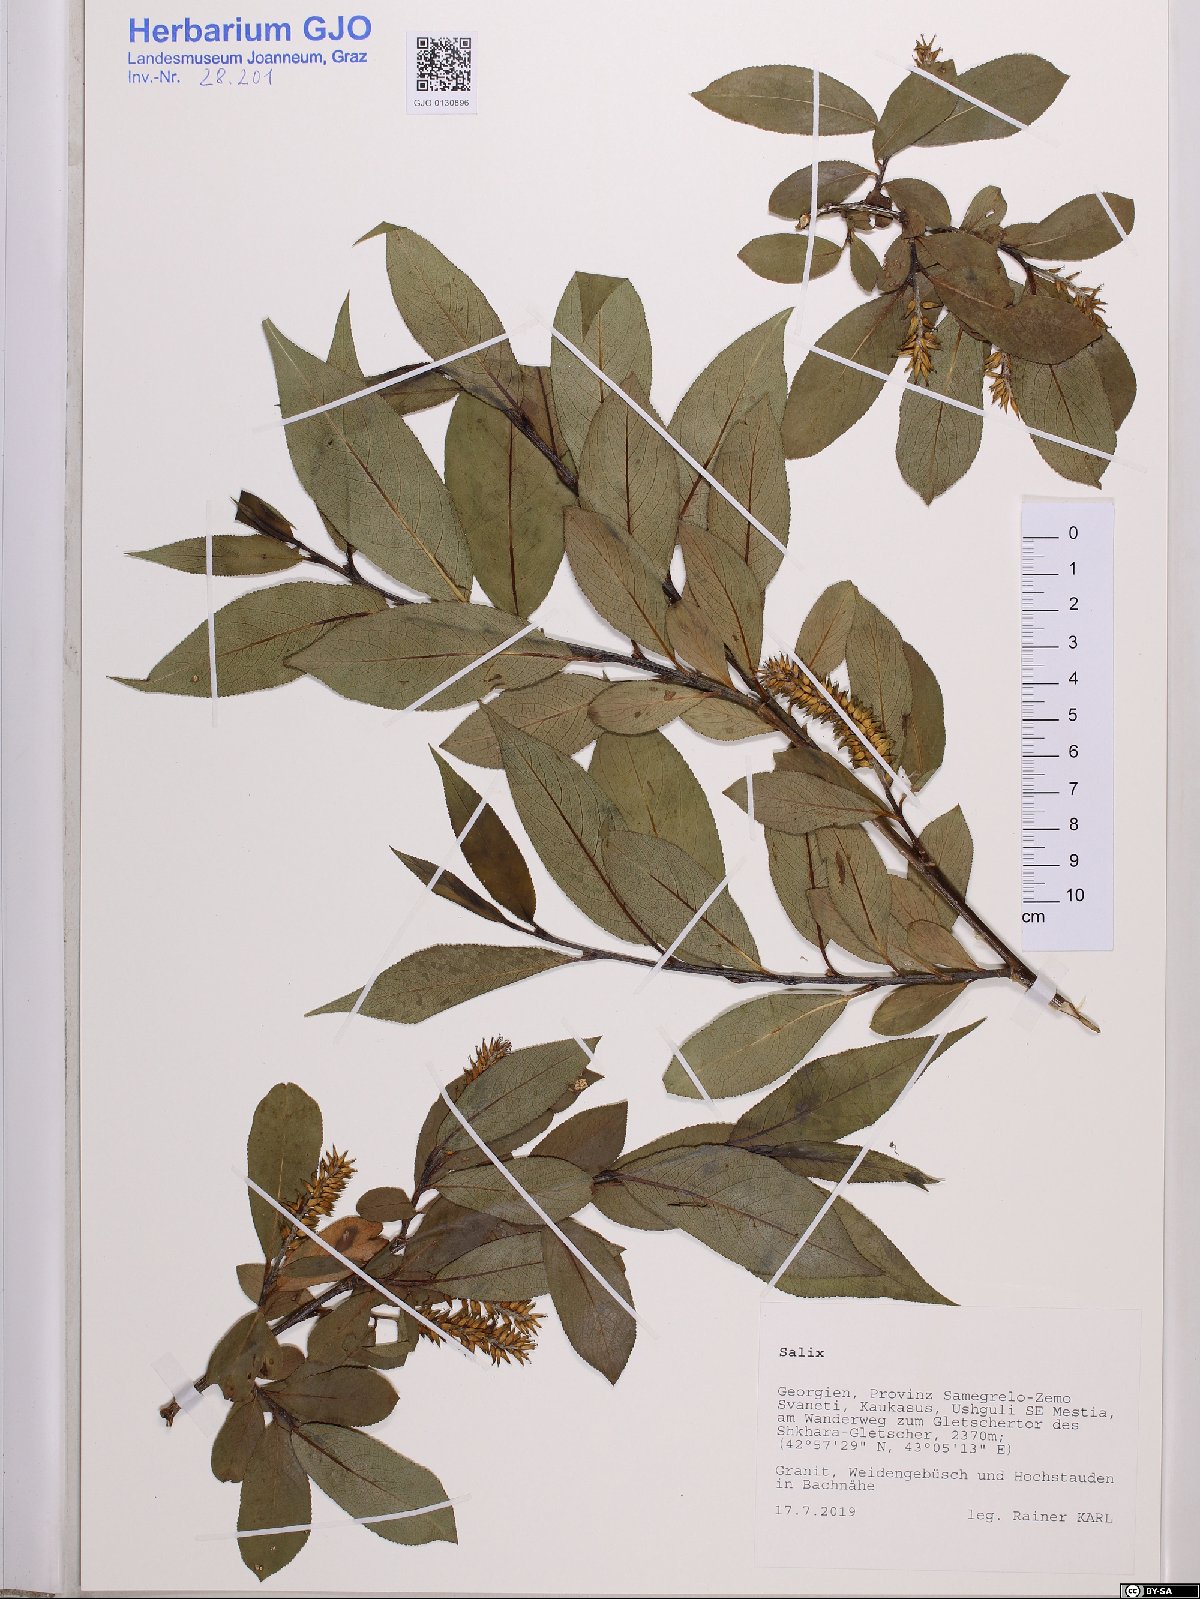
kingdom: Plantae
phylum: Tracheophyta
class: Magnoliopsida
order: Malpighiales
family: Salicaceae
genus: Salix
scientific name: Salix
